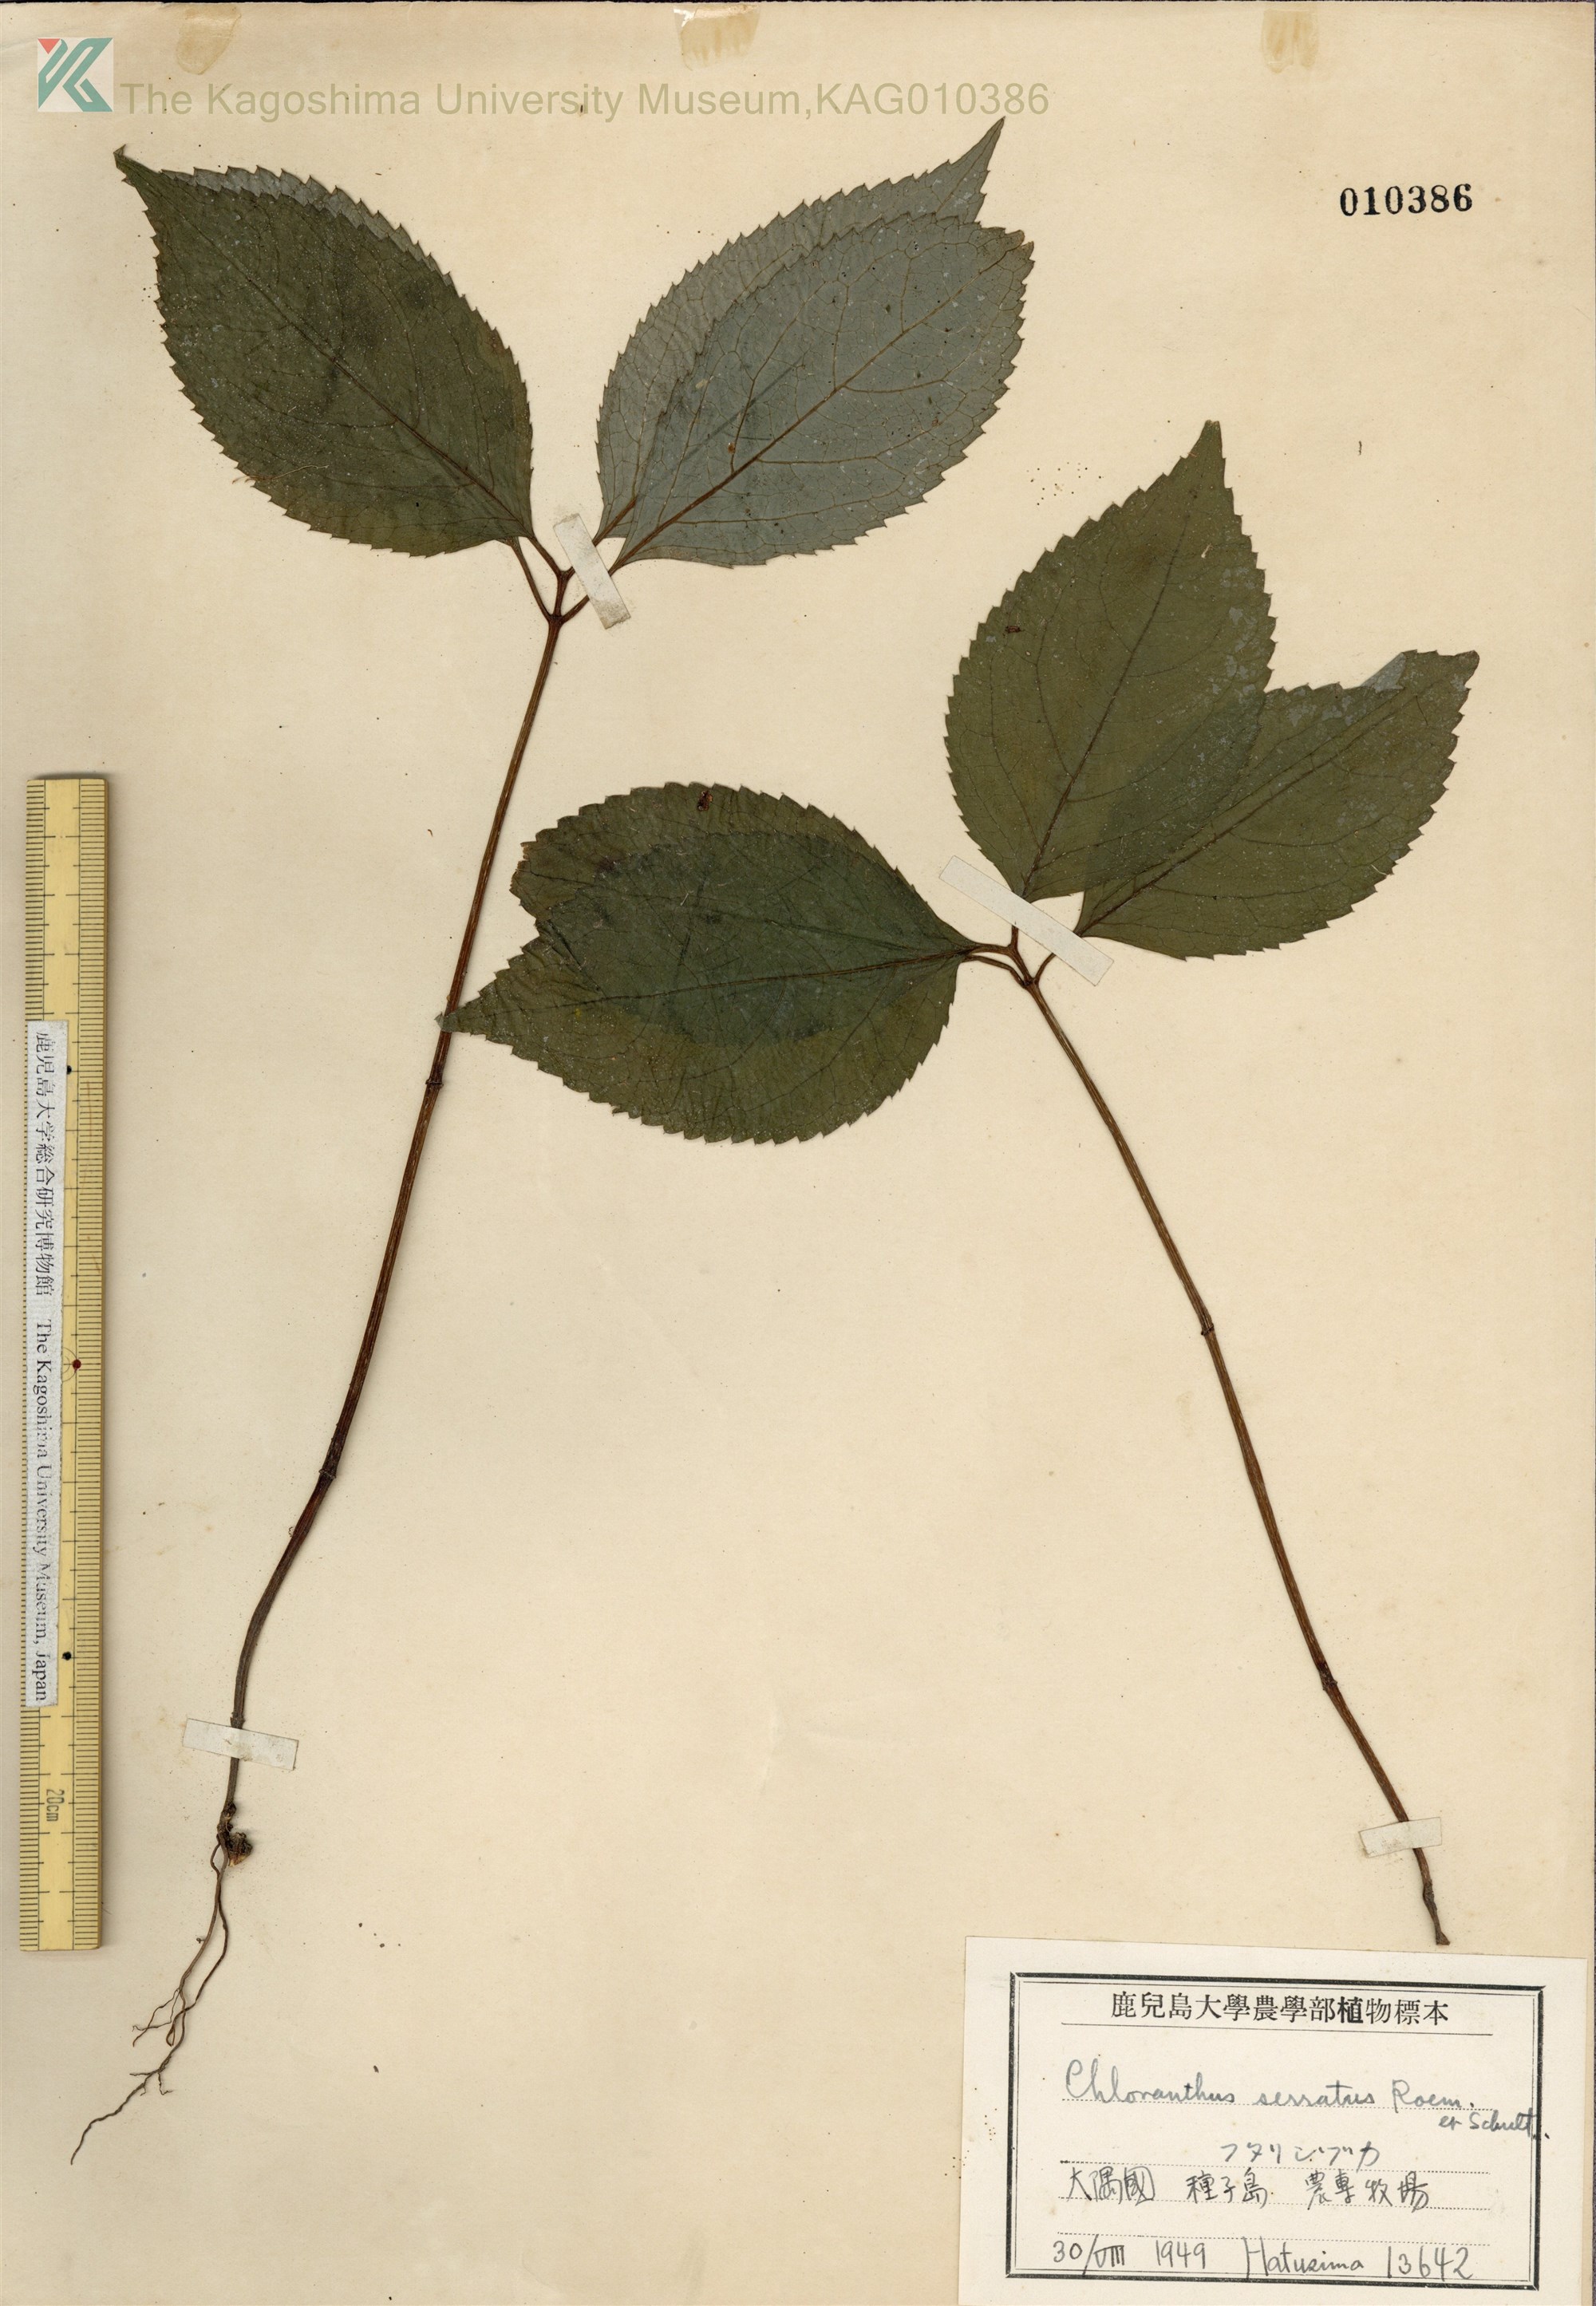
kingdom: Plantae
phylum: Tracheophyta
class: Magnoliopsida
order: Chloranthales
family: Chloranthaceae
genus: Chloranthus
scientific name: Chloranthus serratus
